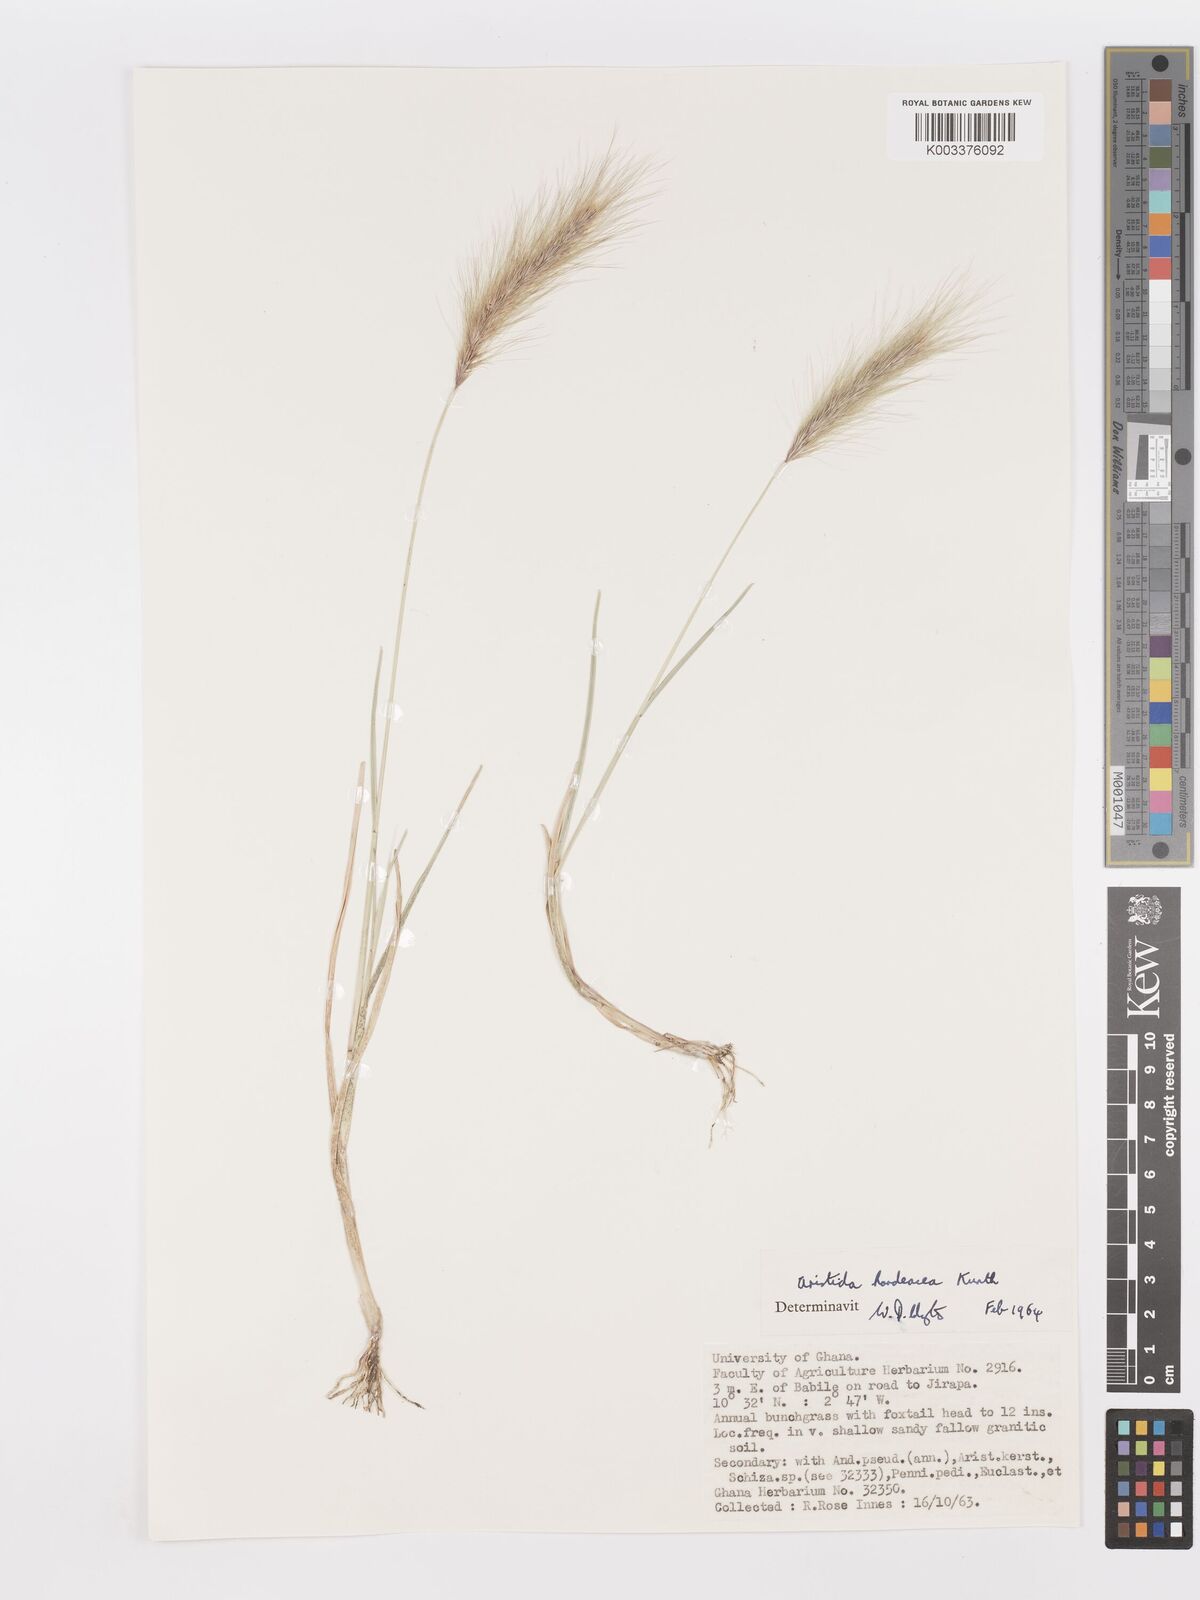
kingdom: Plantae
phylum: Tracheophyta
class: Liliopsida
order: Poales
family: Poaceae
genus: Aristida
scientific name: Aristida hordeacea
